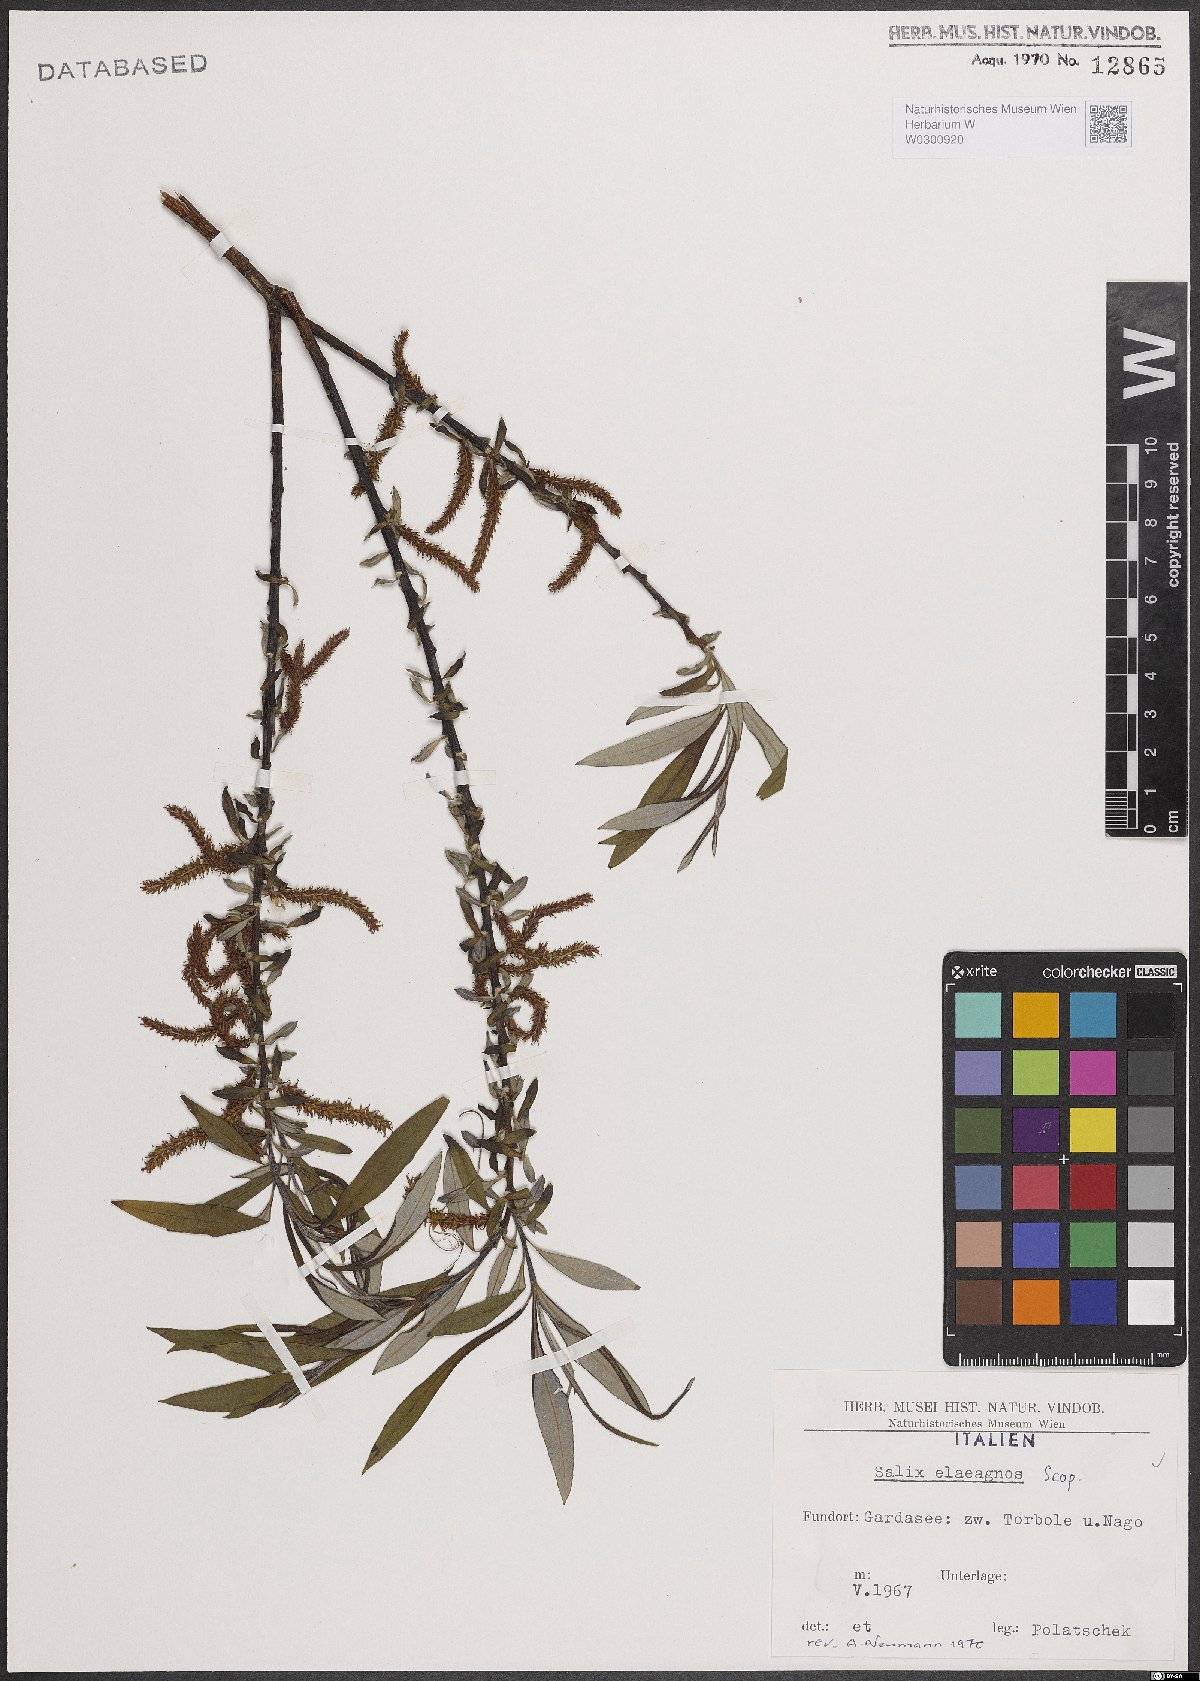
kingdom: Plantae
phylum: Tracheophyta
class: Magnoliopsida
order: Malpighiales
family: Salicaceae
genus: Salix
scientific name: Salix eleagnos
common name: Elaeagnus willow
